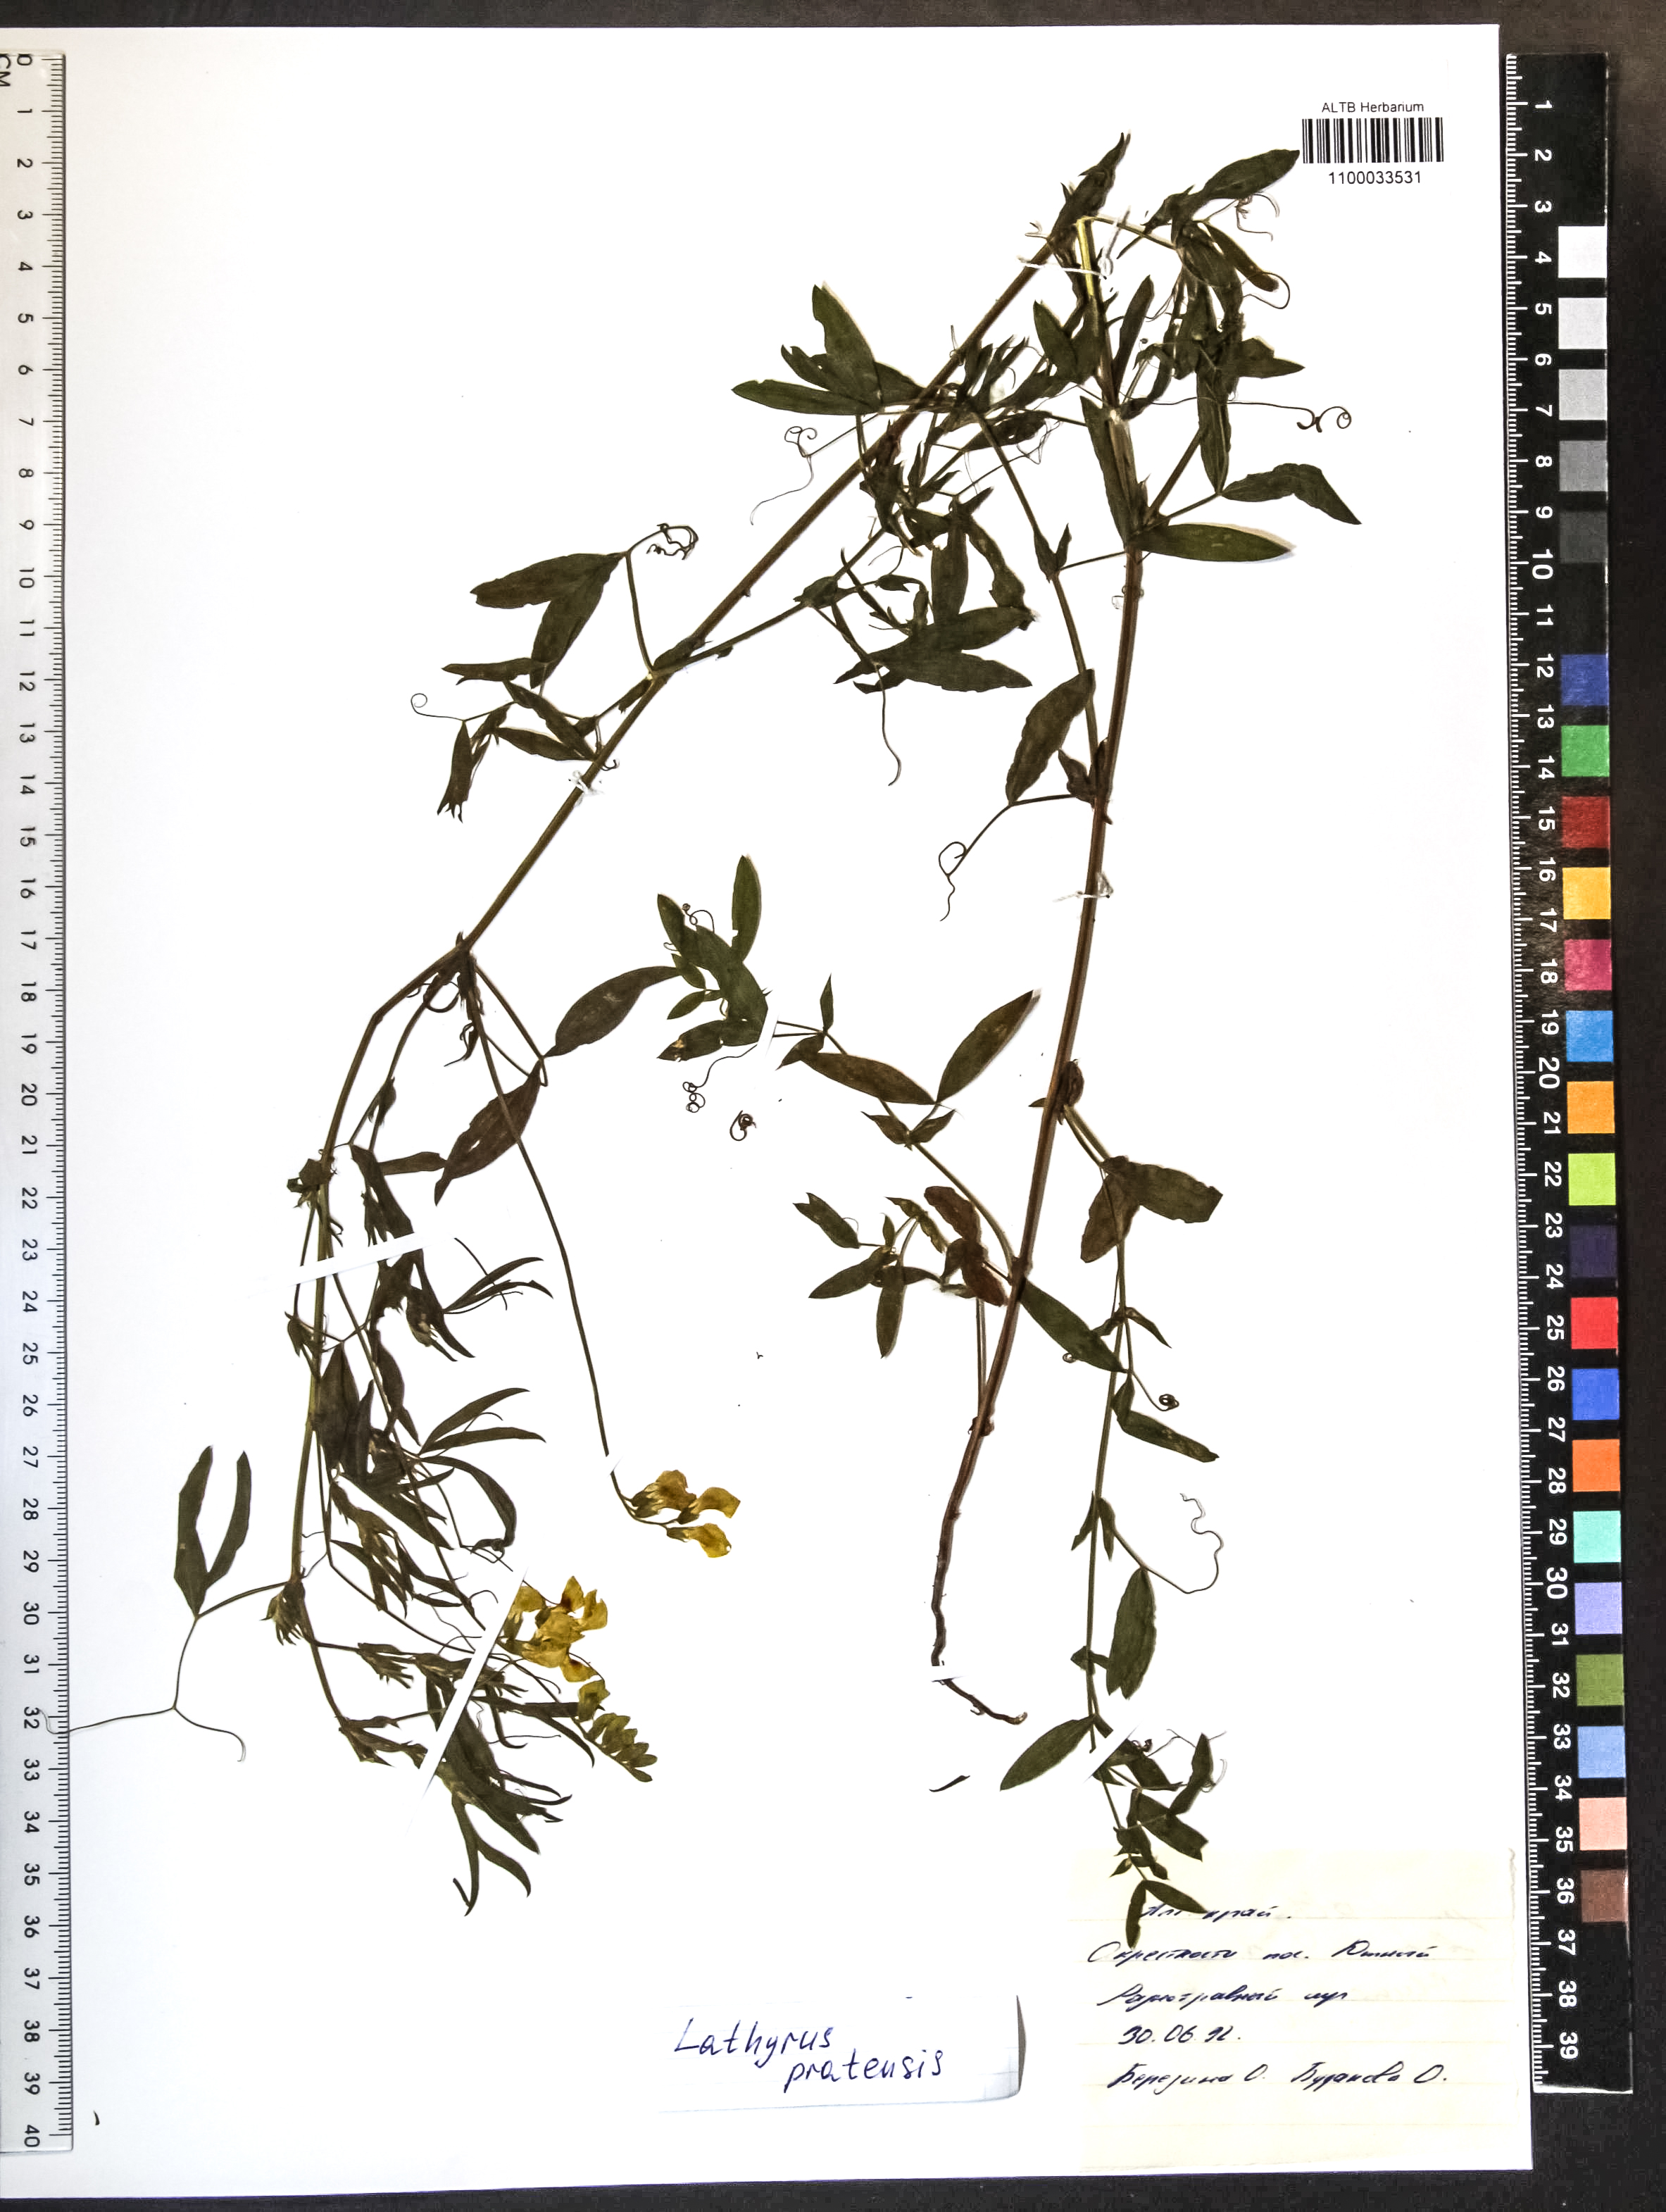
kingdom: Plantae
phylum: Tracheophyta
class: Magnoliopsida
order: Fabales
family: Fabaceae
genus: Lathyrus
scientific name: Lathyrus pratensis
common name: Meadow vetchling
